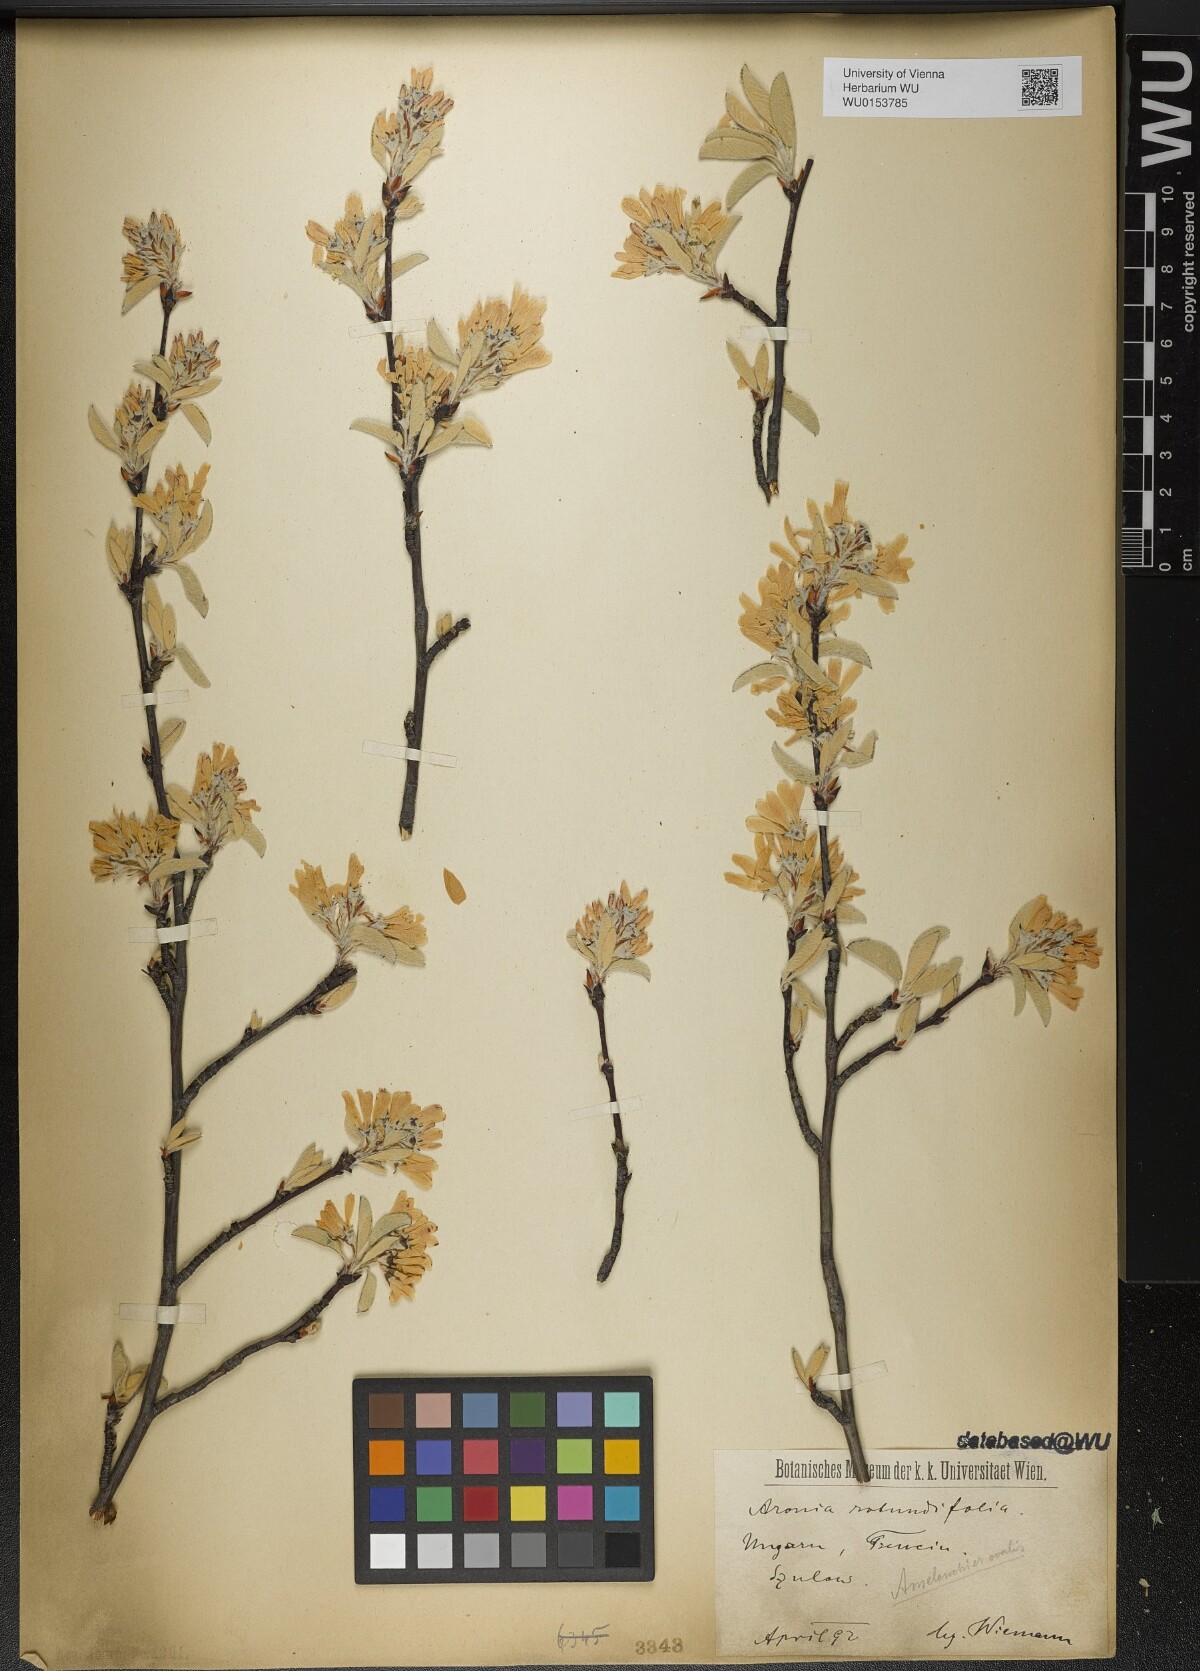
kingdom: Plantae
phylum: Tracheophyta
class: Magnoliopsida
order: Rosales
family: Rosaceae
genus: Amelanchier
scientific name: Amelanchier ovalis
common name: Serviceberry
